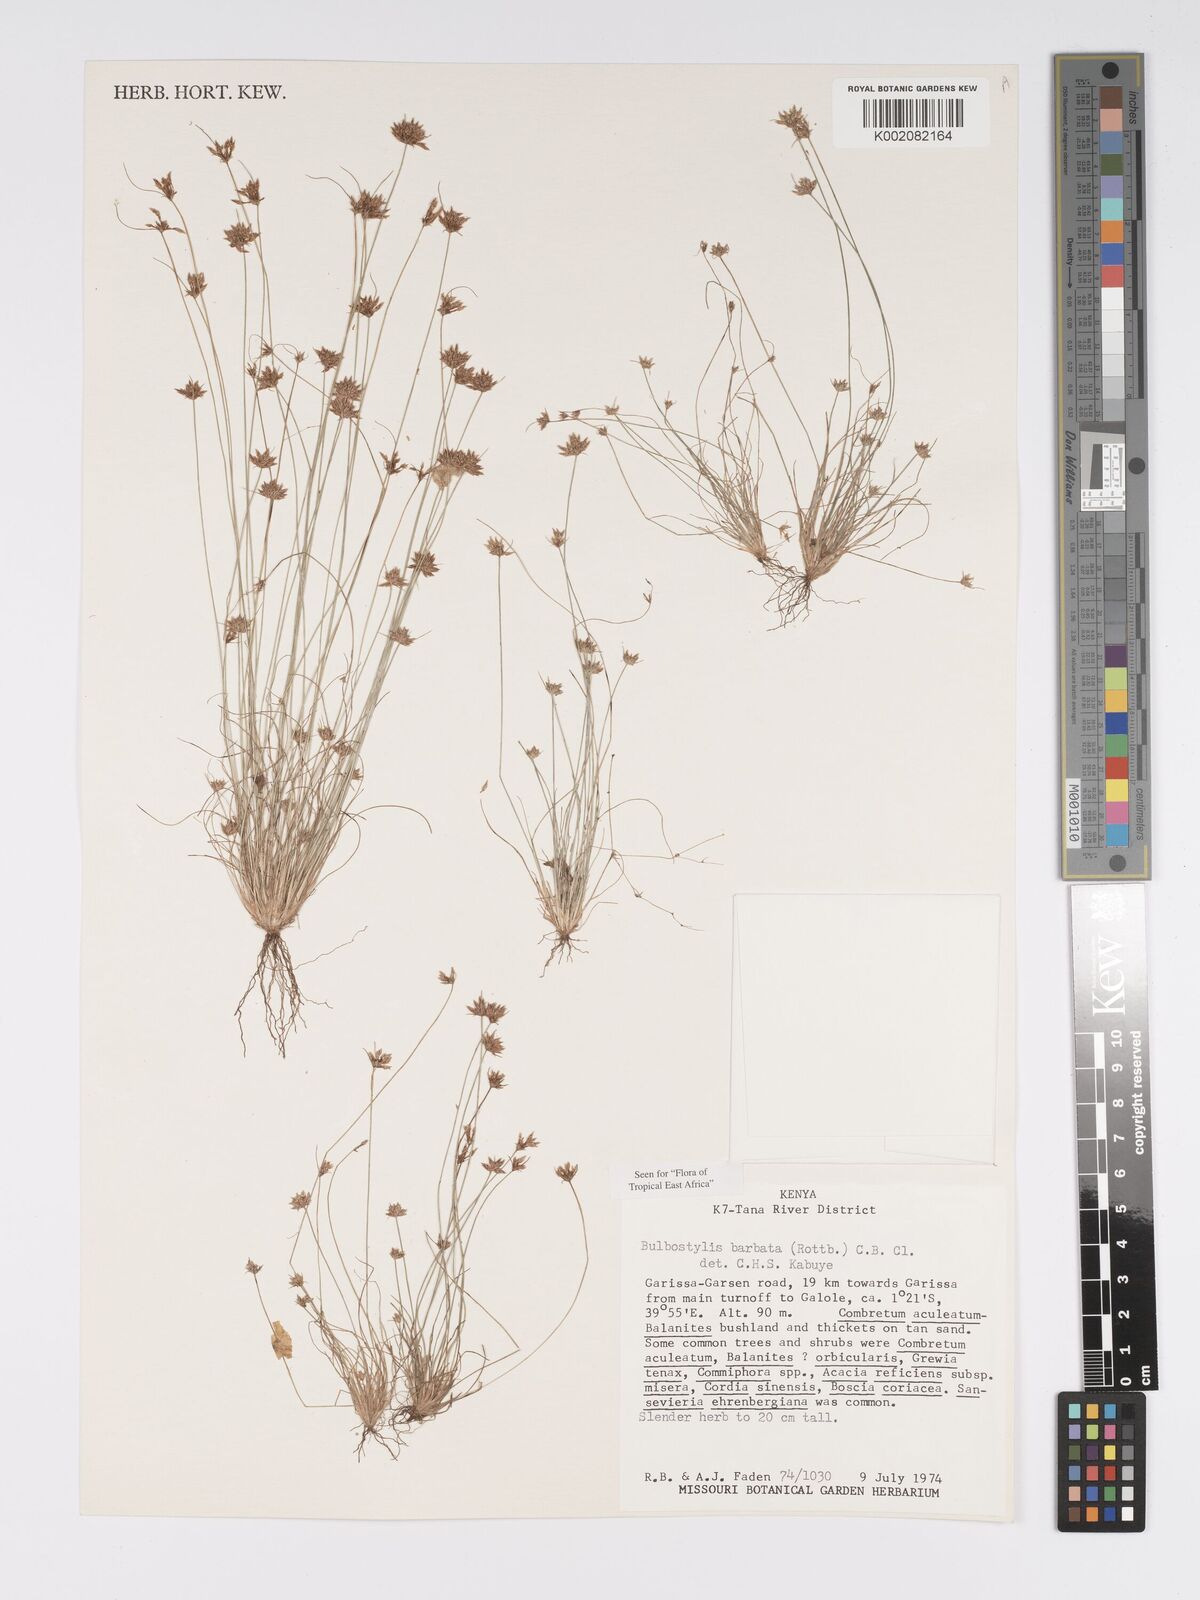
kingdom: Plantae
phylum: Tracheophyta
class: Liliopsida
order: Poales
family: Cyperaceae
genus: Bulbostylis
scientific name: Bulbostylis barbata
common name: Watergrass
